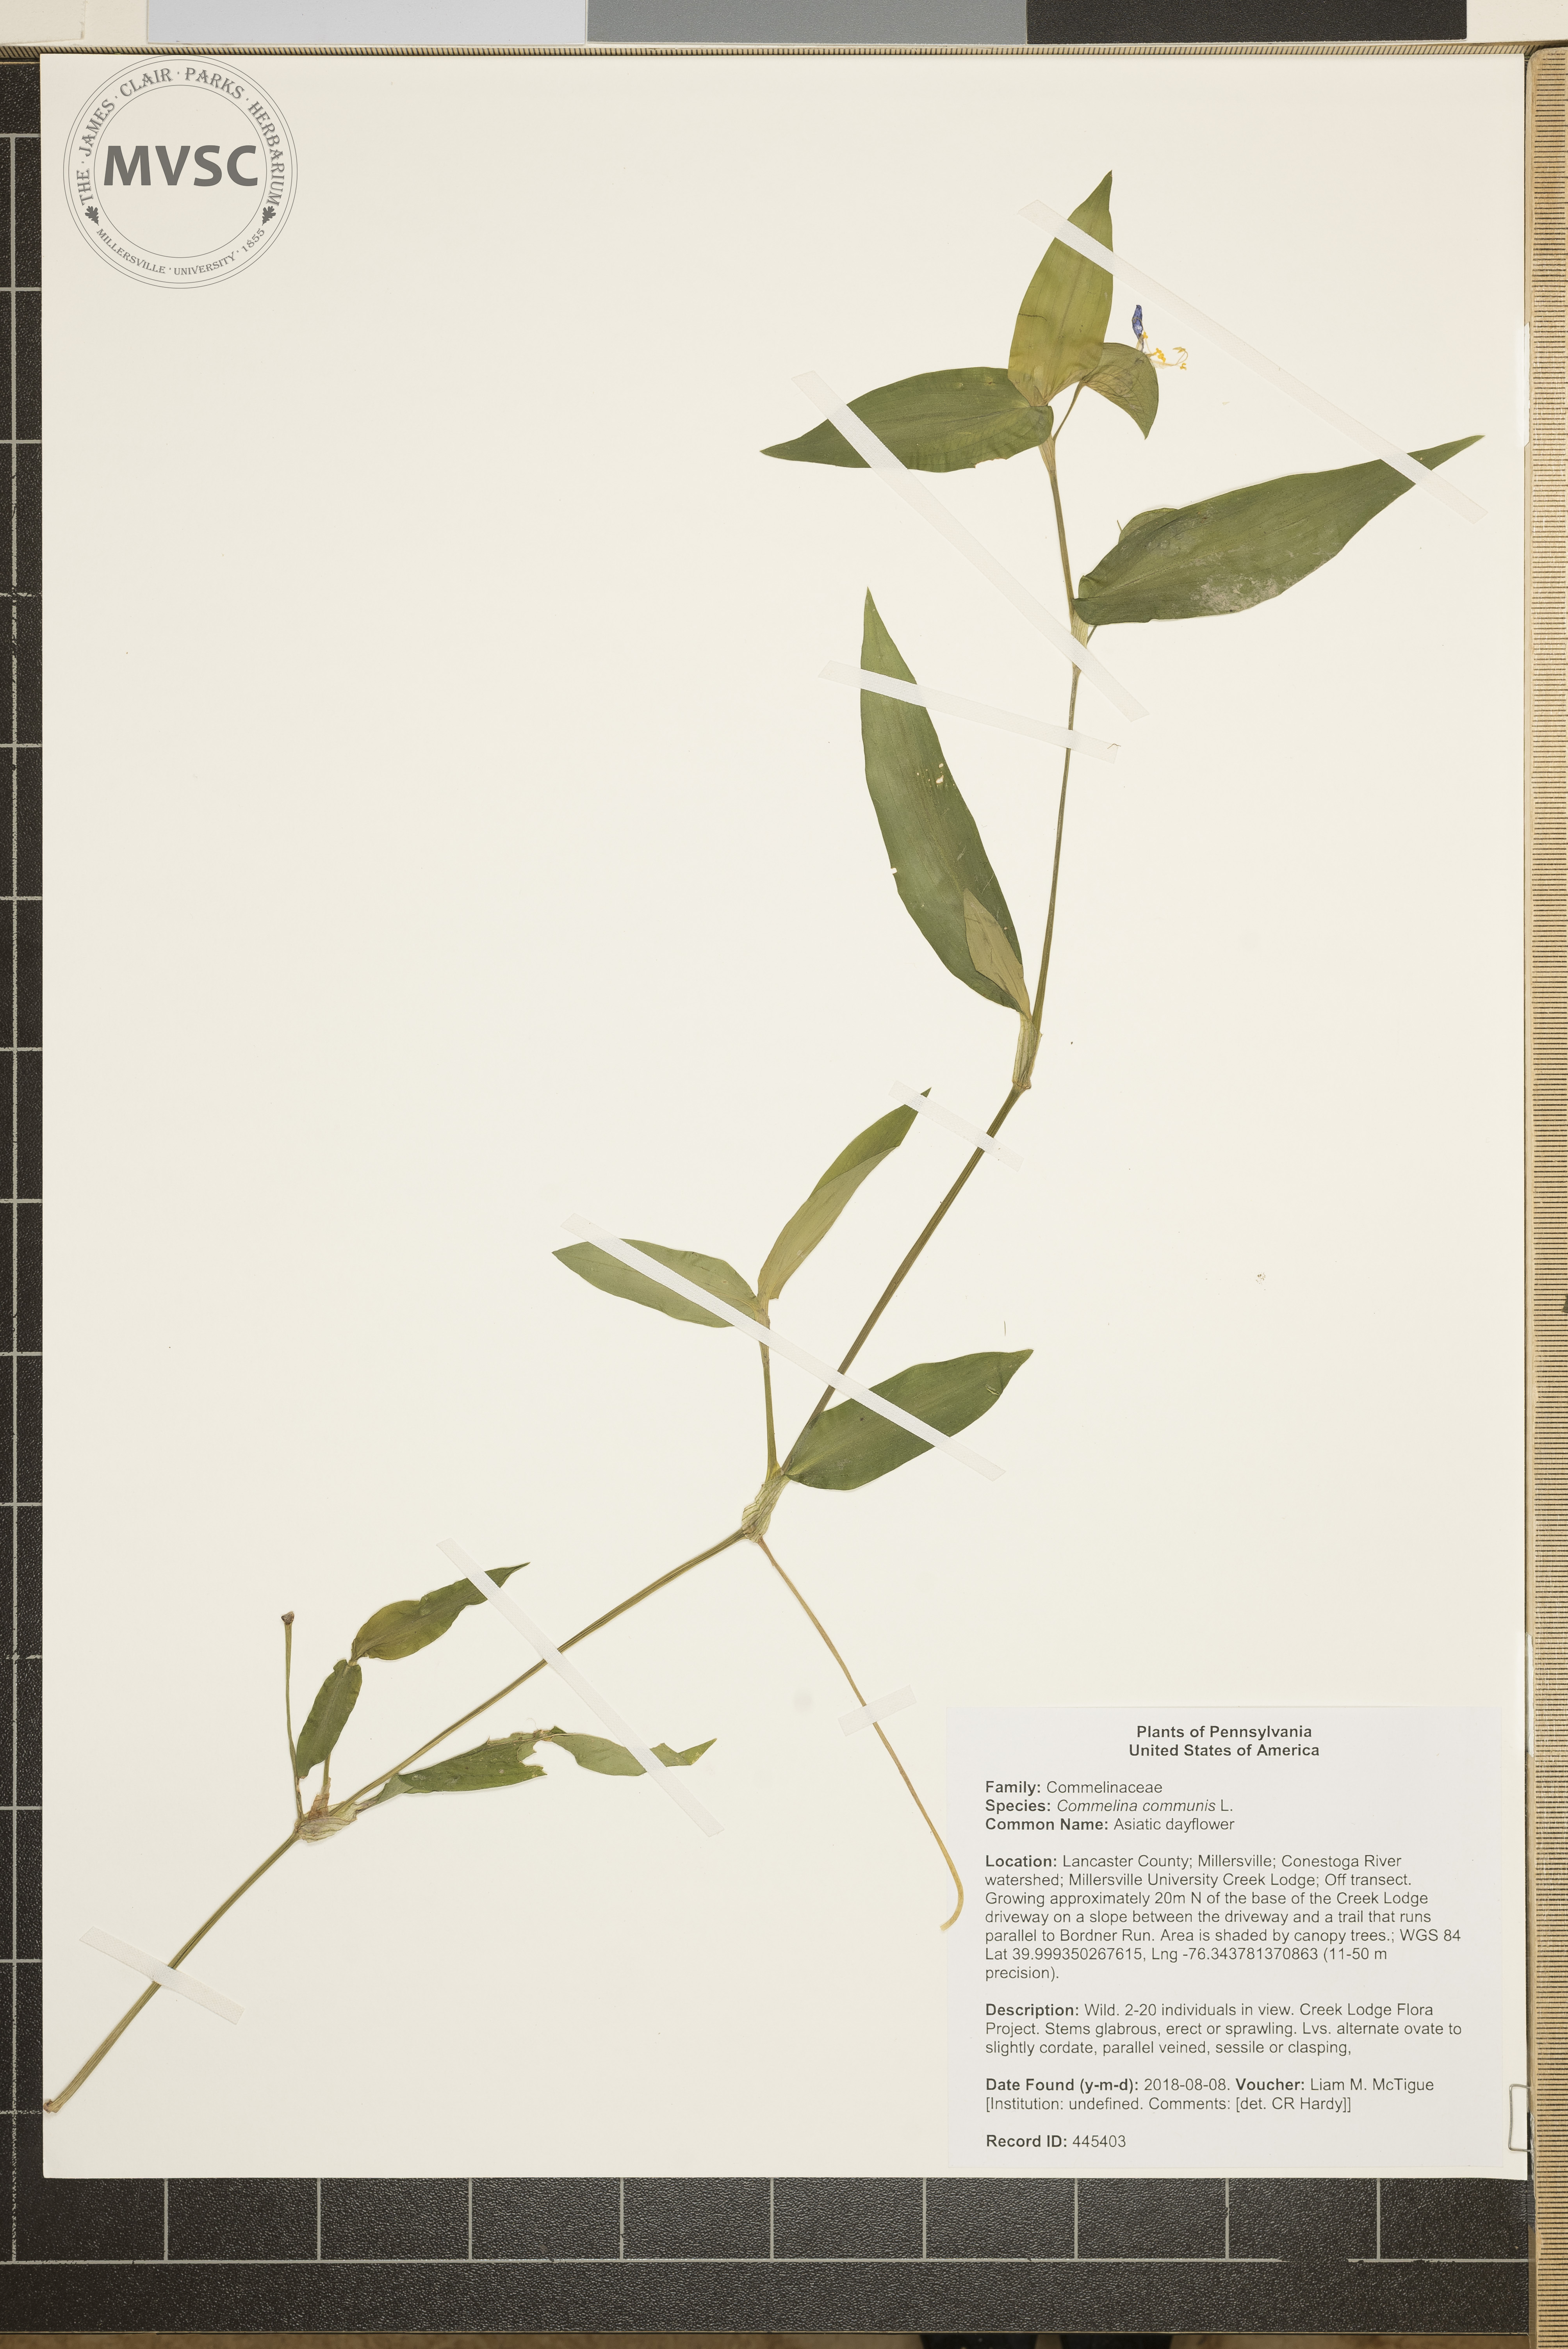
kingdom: Plantae
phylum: Tracheophyta
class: Liliopsida
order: Commelinales
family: Commelinaceae
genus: Commelina
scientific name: Commelina communis
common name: Asiatic dayflower
